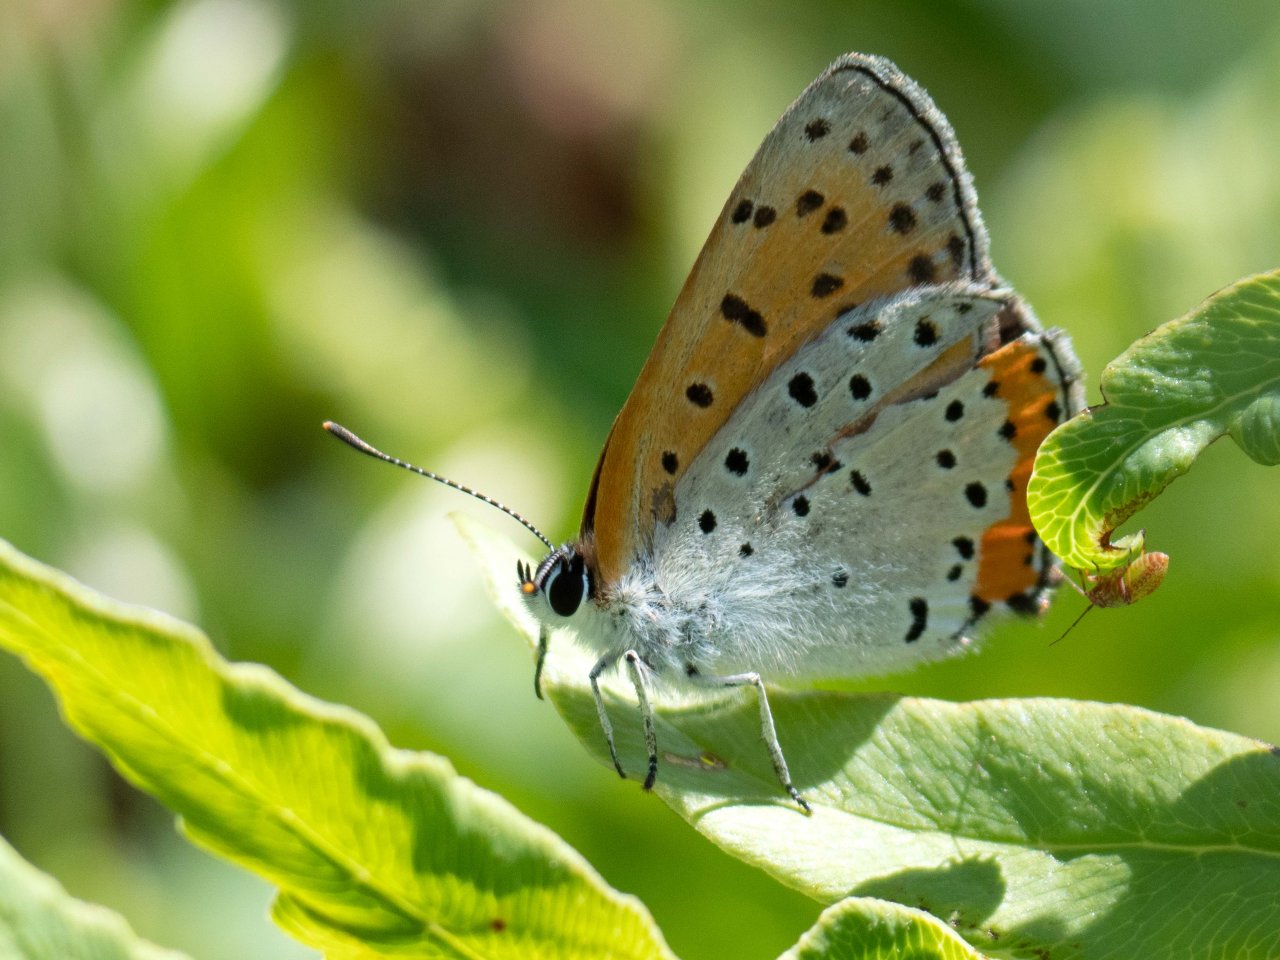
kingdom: Animalia
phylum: Arthropoda
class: Insecta
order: Lepidoptera
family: Sesiidae
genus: Sesia
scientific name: Sesia Lycaena hyllus
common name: Bronze Copper
